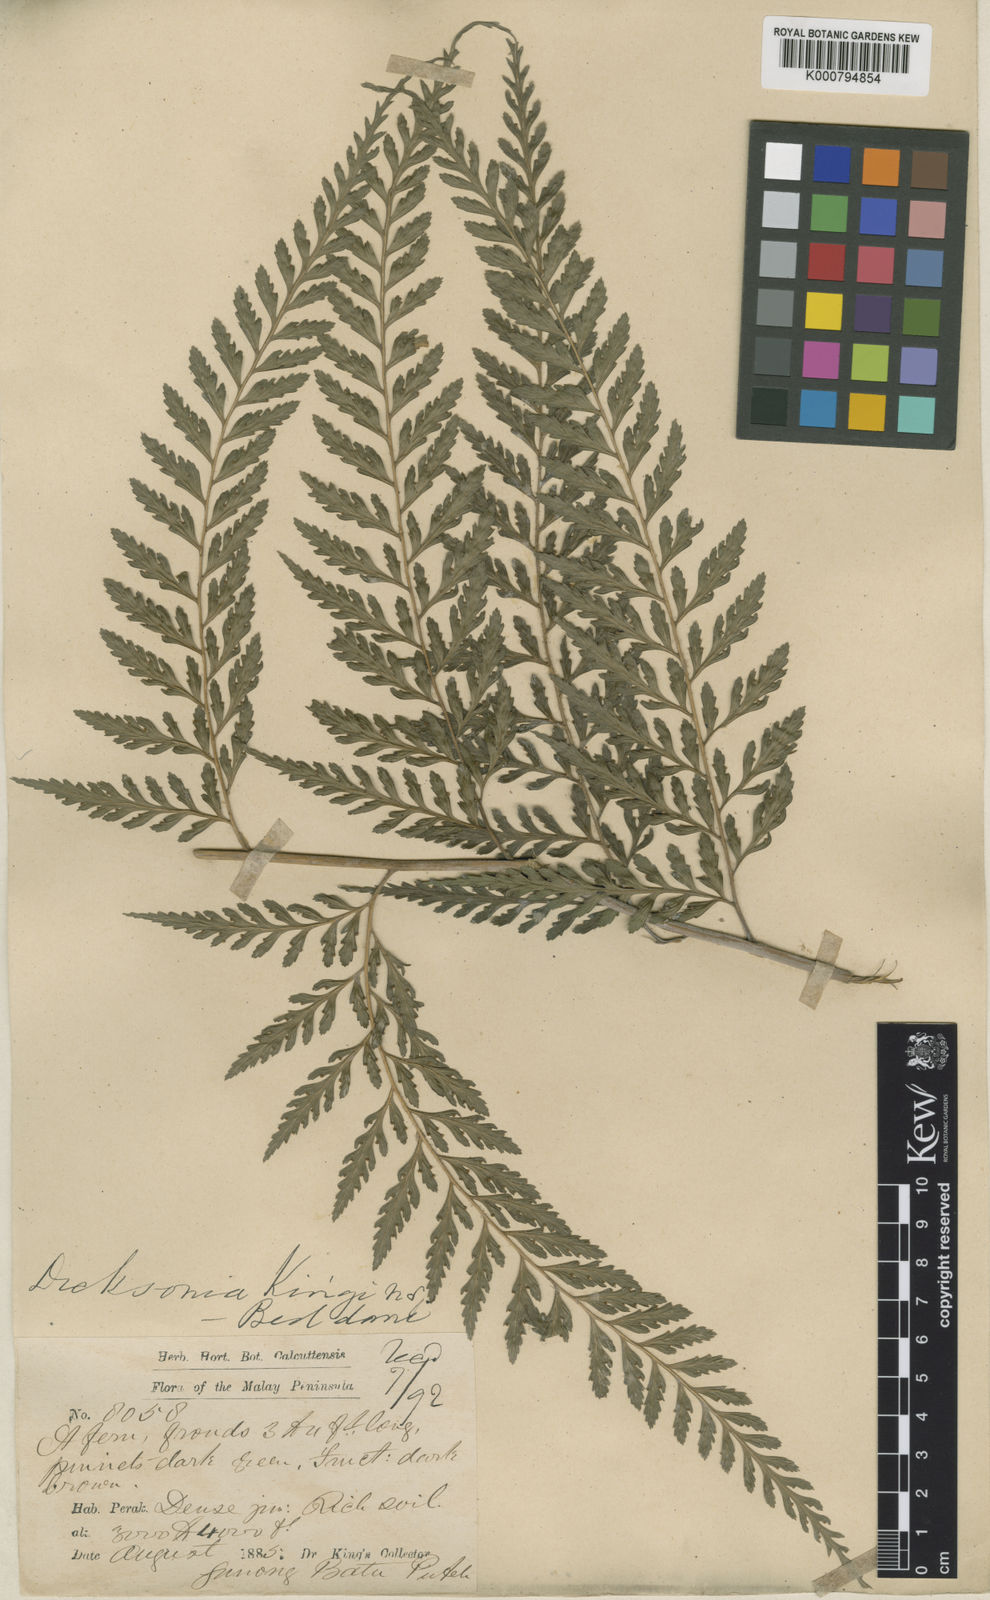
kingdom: Plantae
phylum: Tracheophyta
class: Polypodiopsida
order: Polypodiales
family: Saccolomataceae
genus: Orthiopteris
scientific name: Orthiopteris campylura
